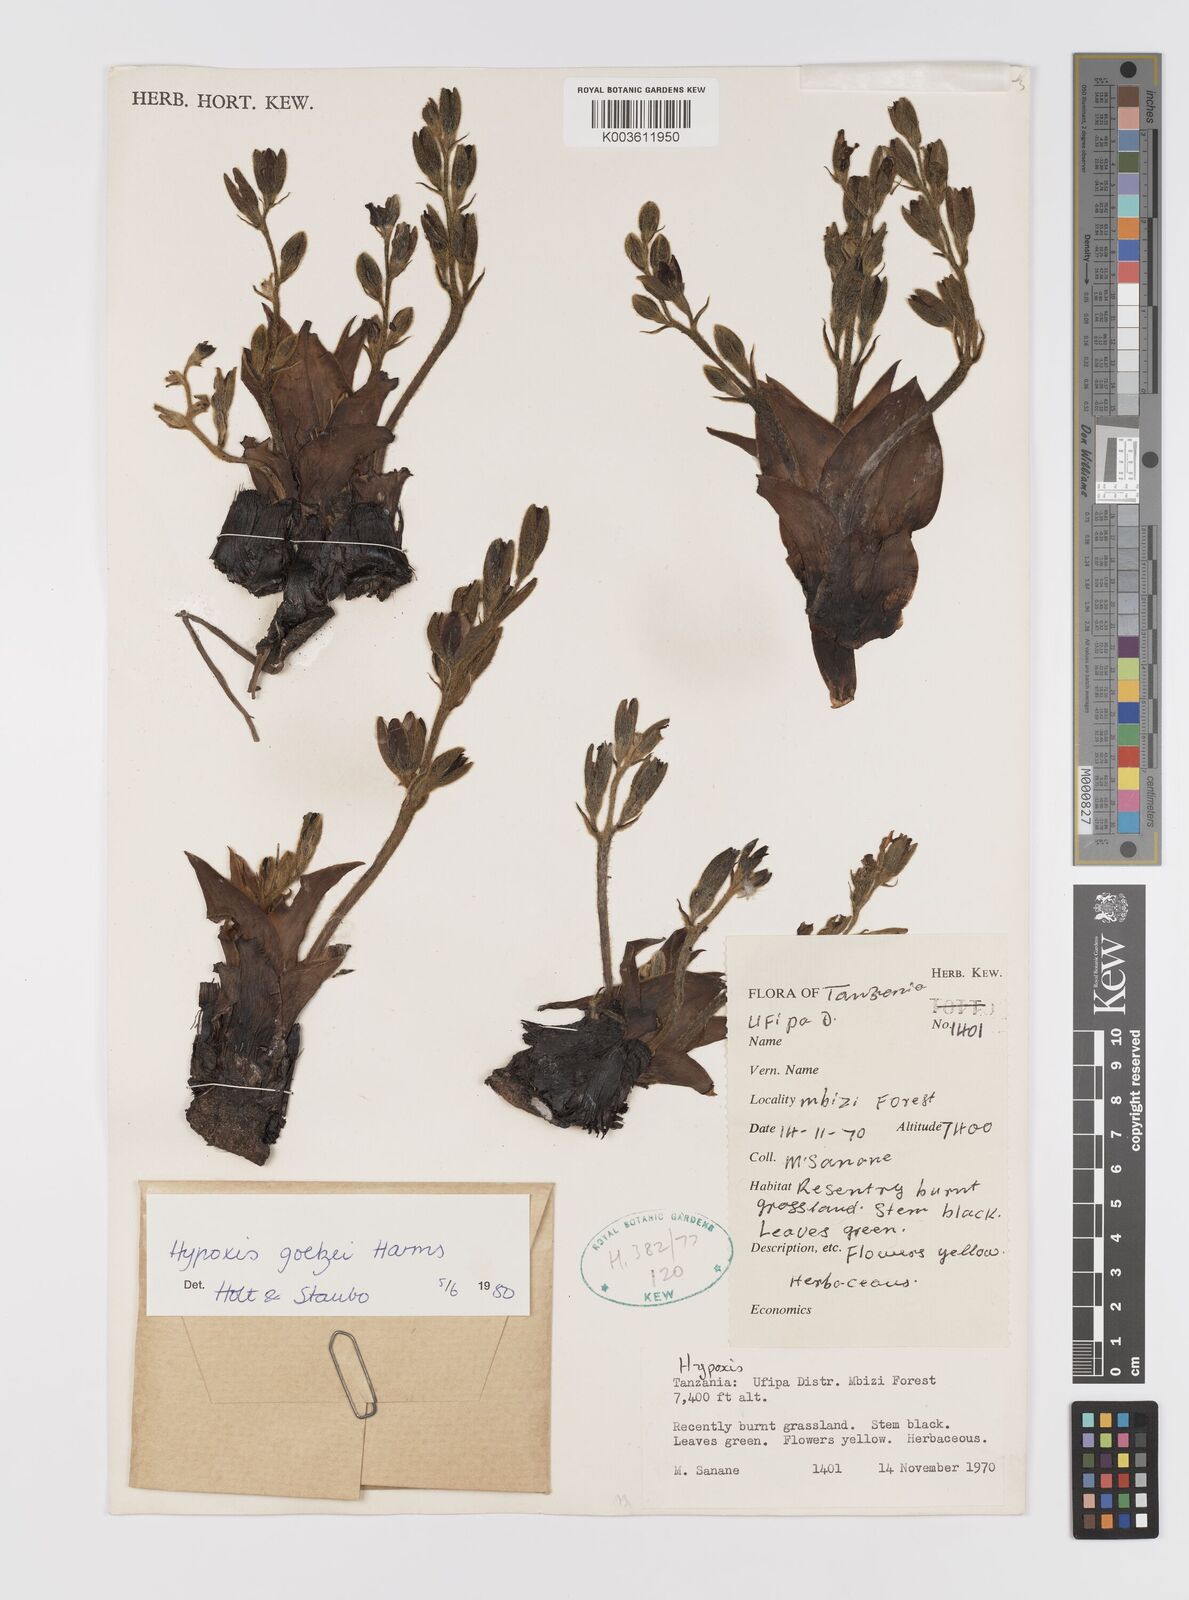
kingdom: Plantae
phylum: Tracheophyta
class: Liliopsida
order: Asparagales
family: Hypoxidaceae
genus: Hypoxis
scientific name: Hypoxis goetzei
